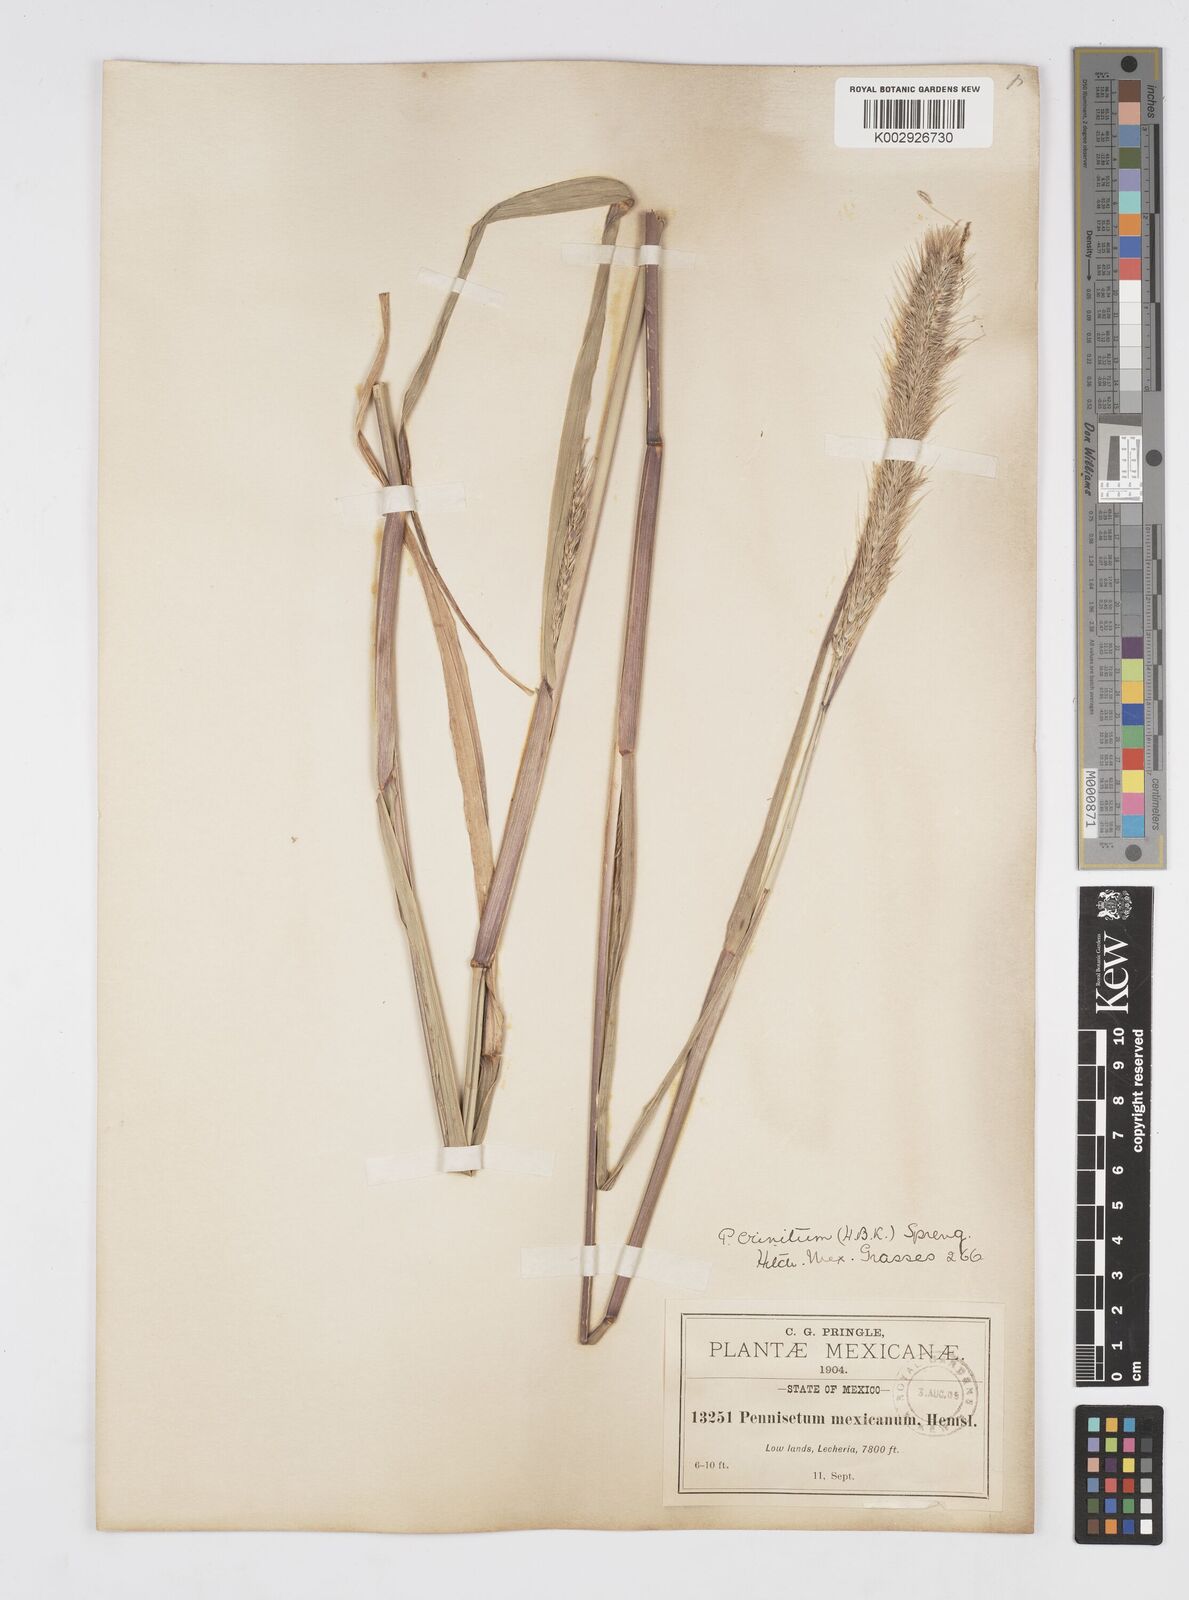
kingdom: Plantae
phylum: Tracheophyta
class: Liliopsida
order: Poales
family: Poaceae
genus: Cenchrus
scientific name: Cenchrus michoacanus
